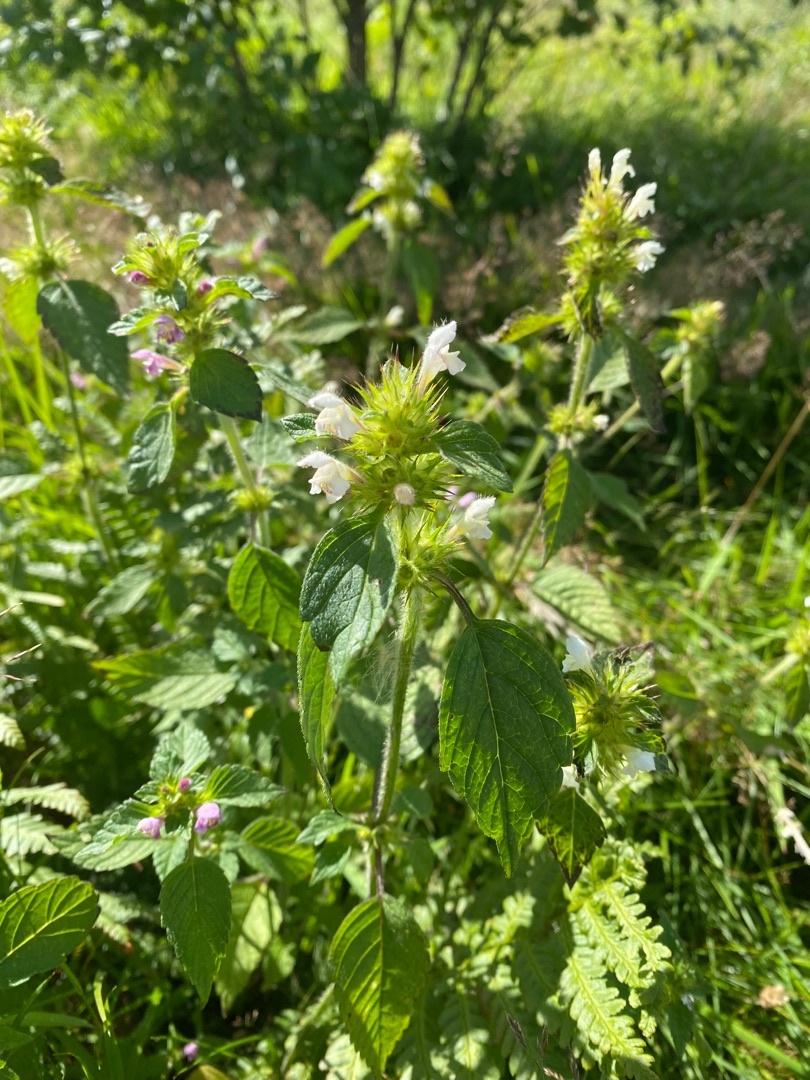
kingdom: Plantae
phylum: Tracheophyta
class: Magnoliopsida
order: Lamiales
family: Lamiaceae
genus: Galeopsis
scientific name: Galeopsis
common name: Hanekroslægten
